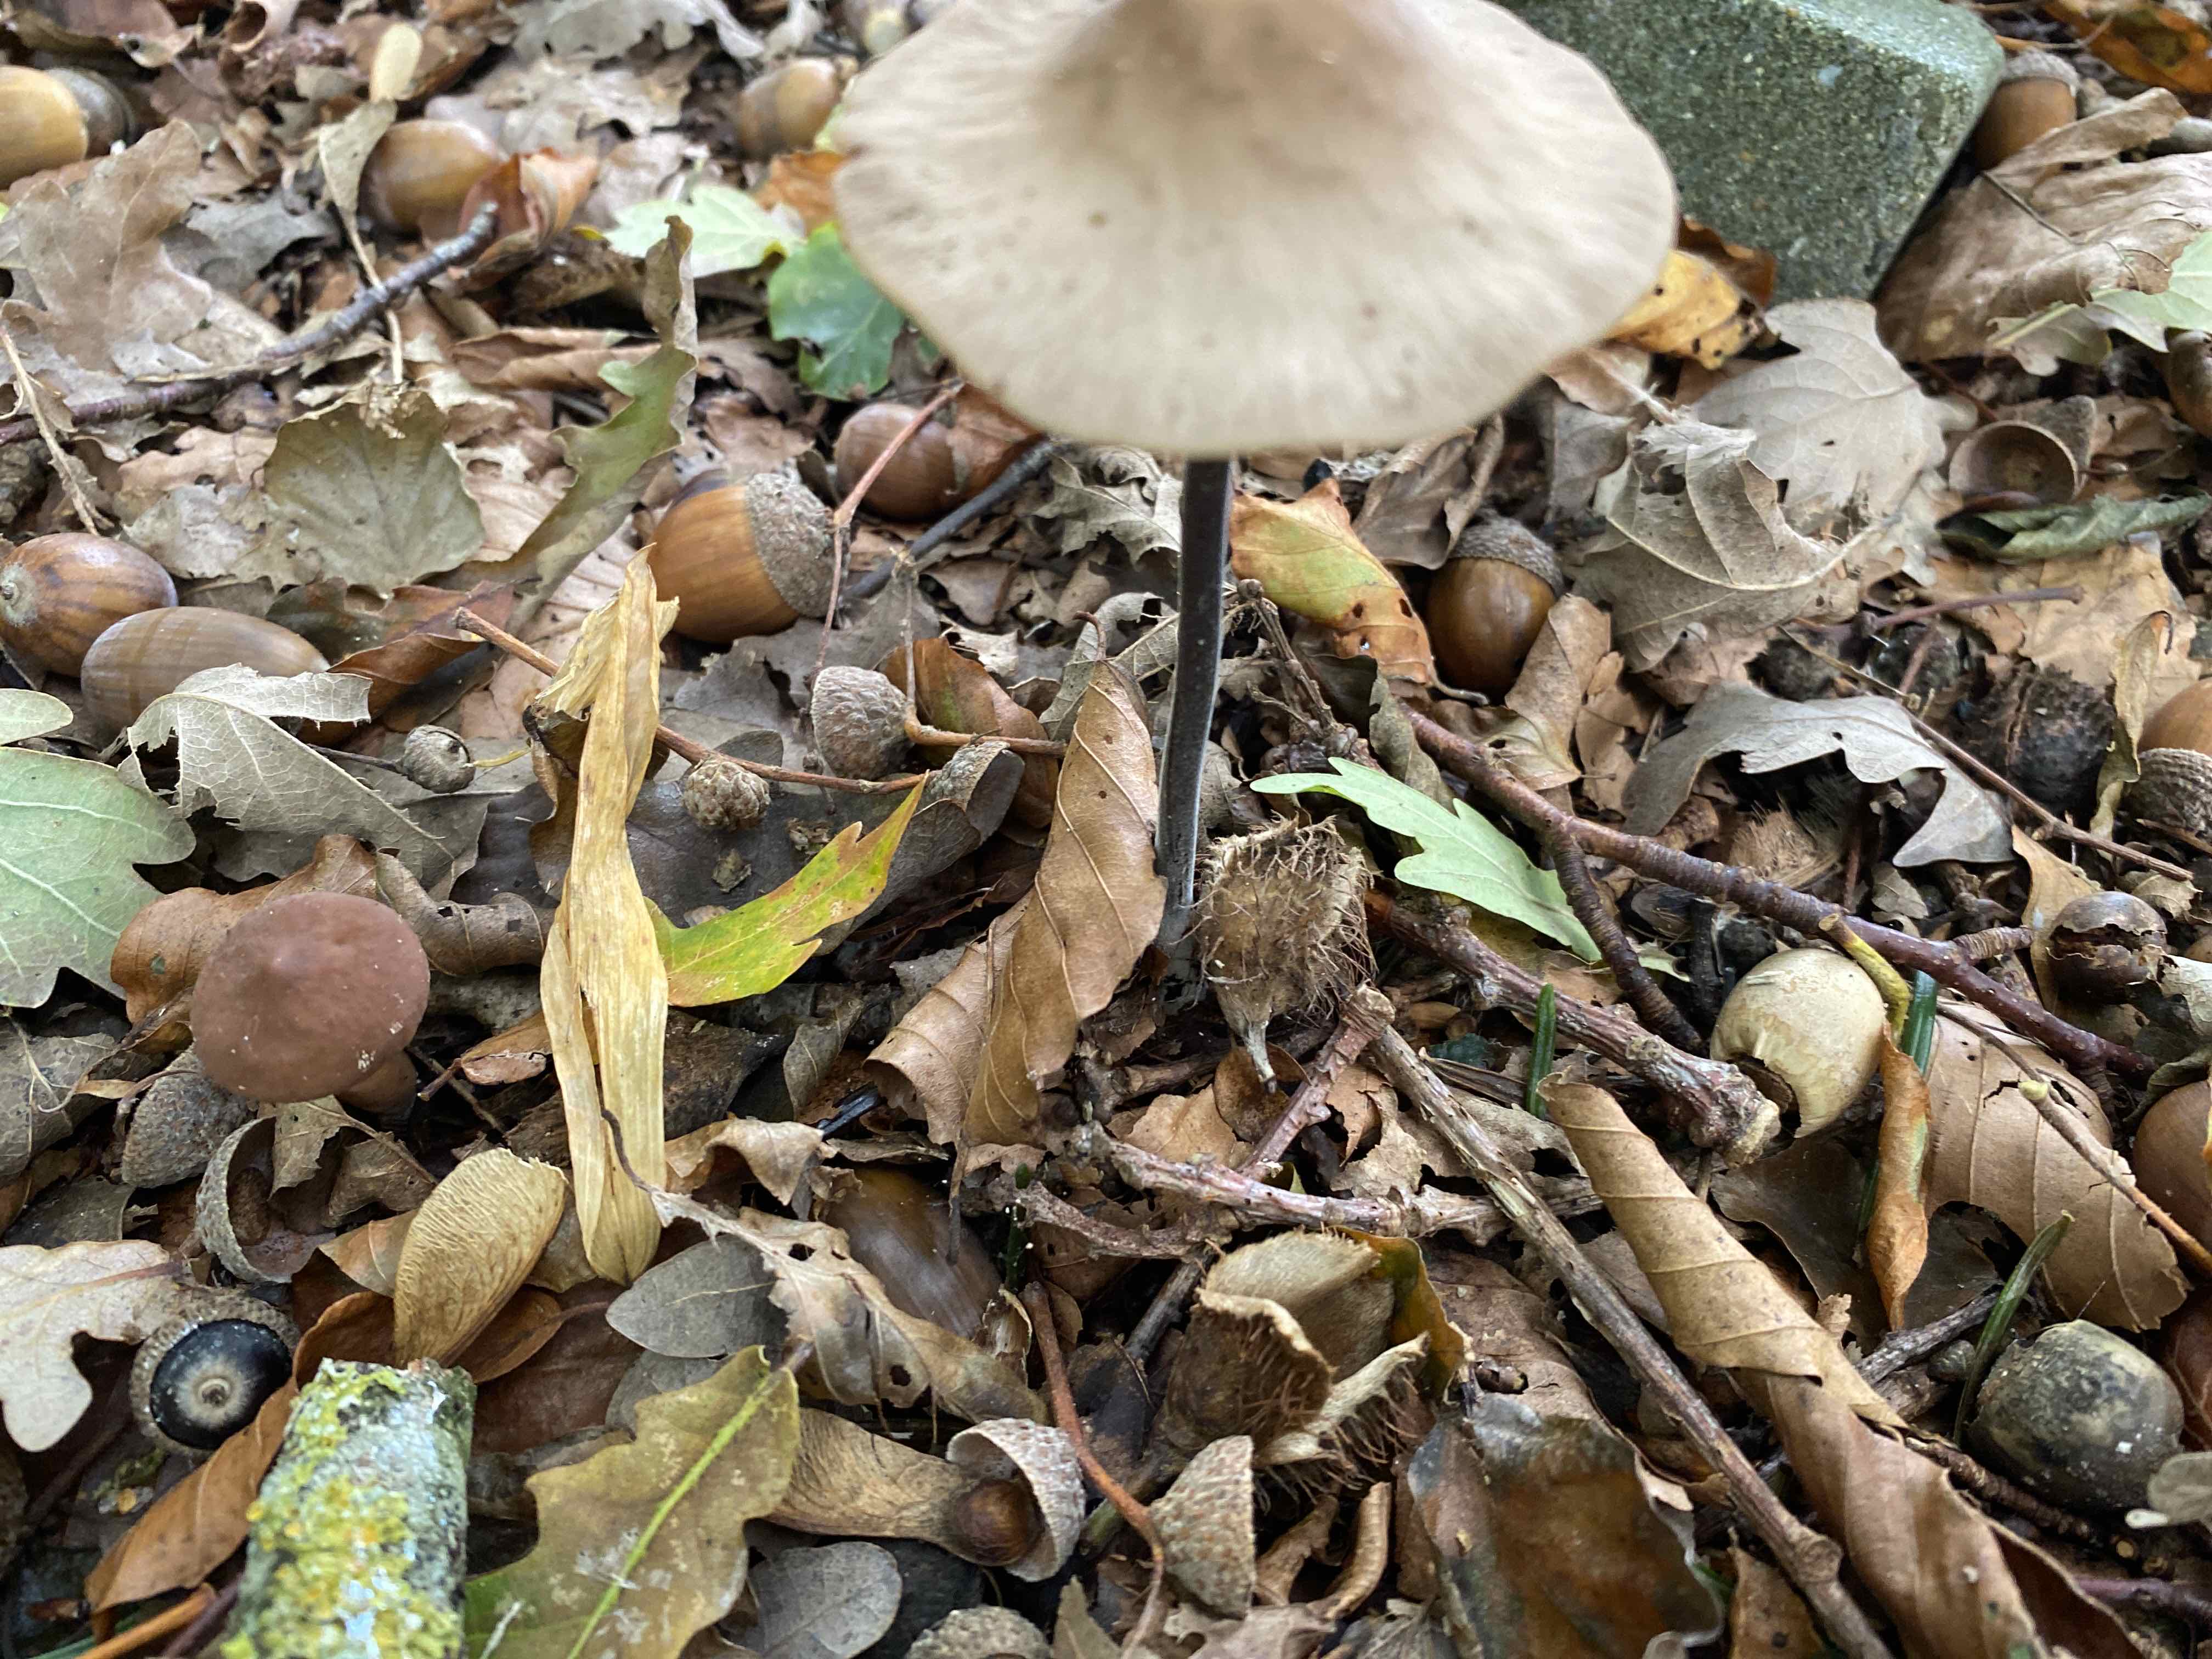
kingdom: Fungi
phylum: Basidiomycota
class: Agaricomycetes
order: Agaricales
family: Omphalotaceae
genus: Mycetinis
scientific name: Mycetinis alliaceus
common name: stor løghat
